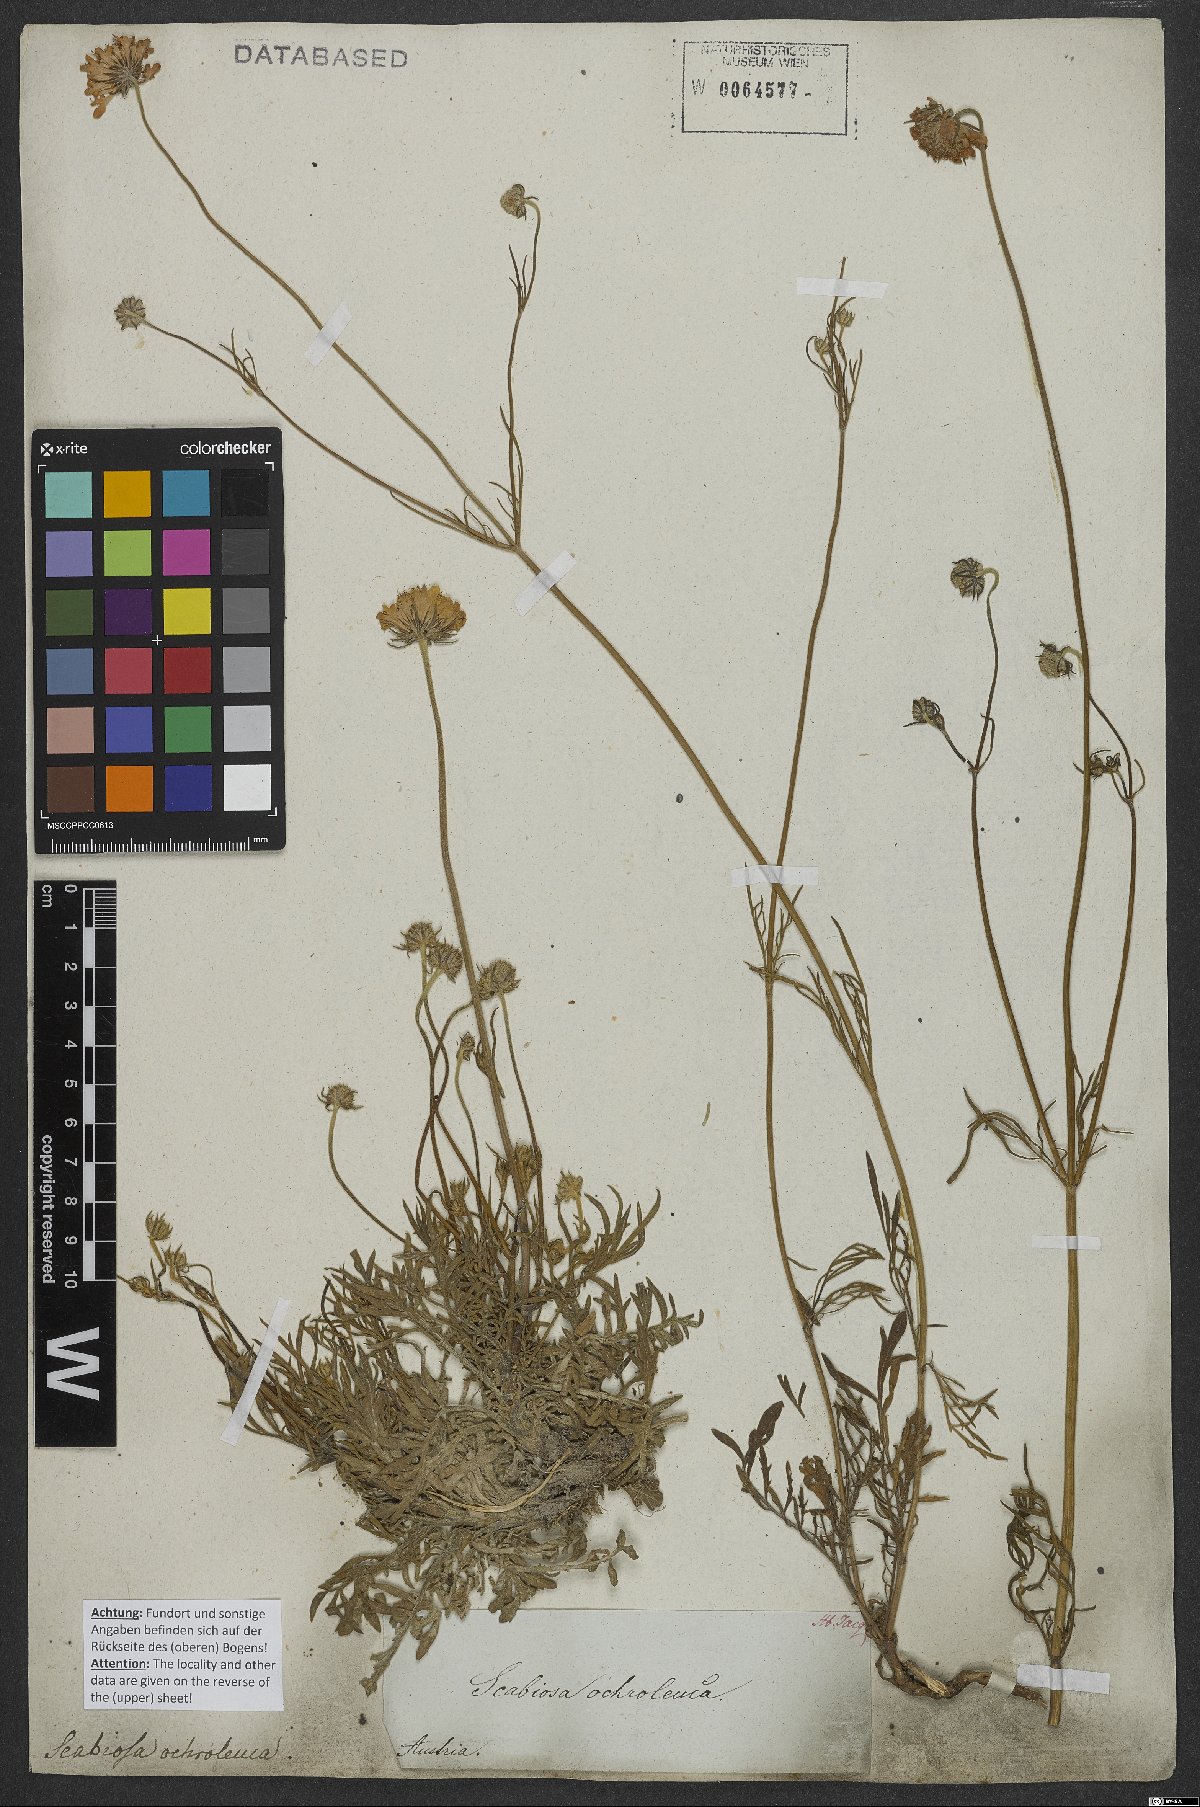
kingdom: Plantae
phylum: Tracheophyta
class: Magnoliopsida
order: Dipsacales
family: Caprifoliaceae
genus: Scabiosa
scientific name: Scabiosa ochroleuca
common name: Cream pincushions
